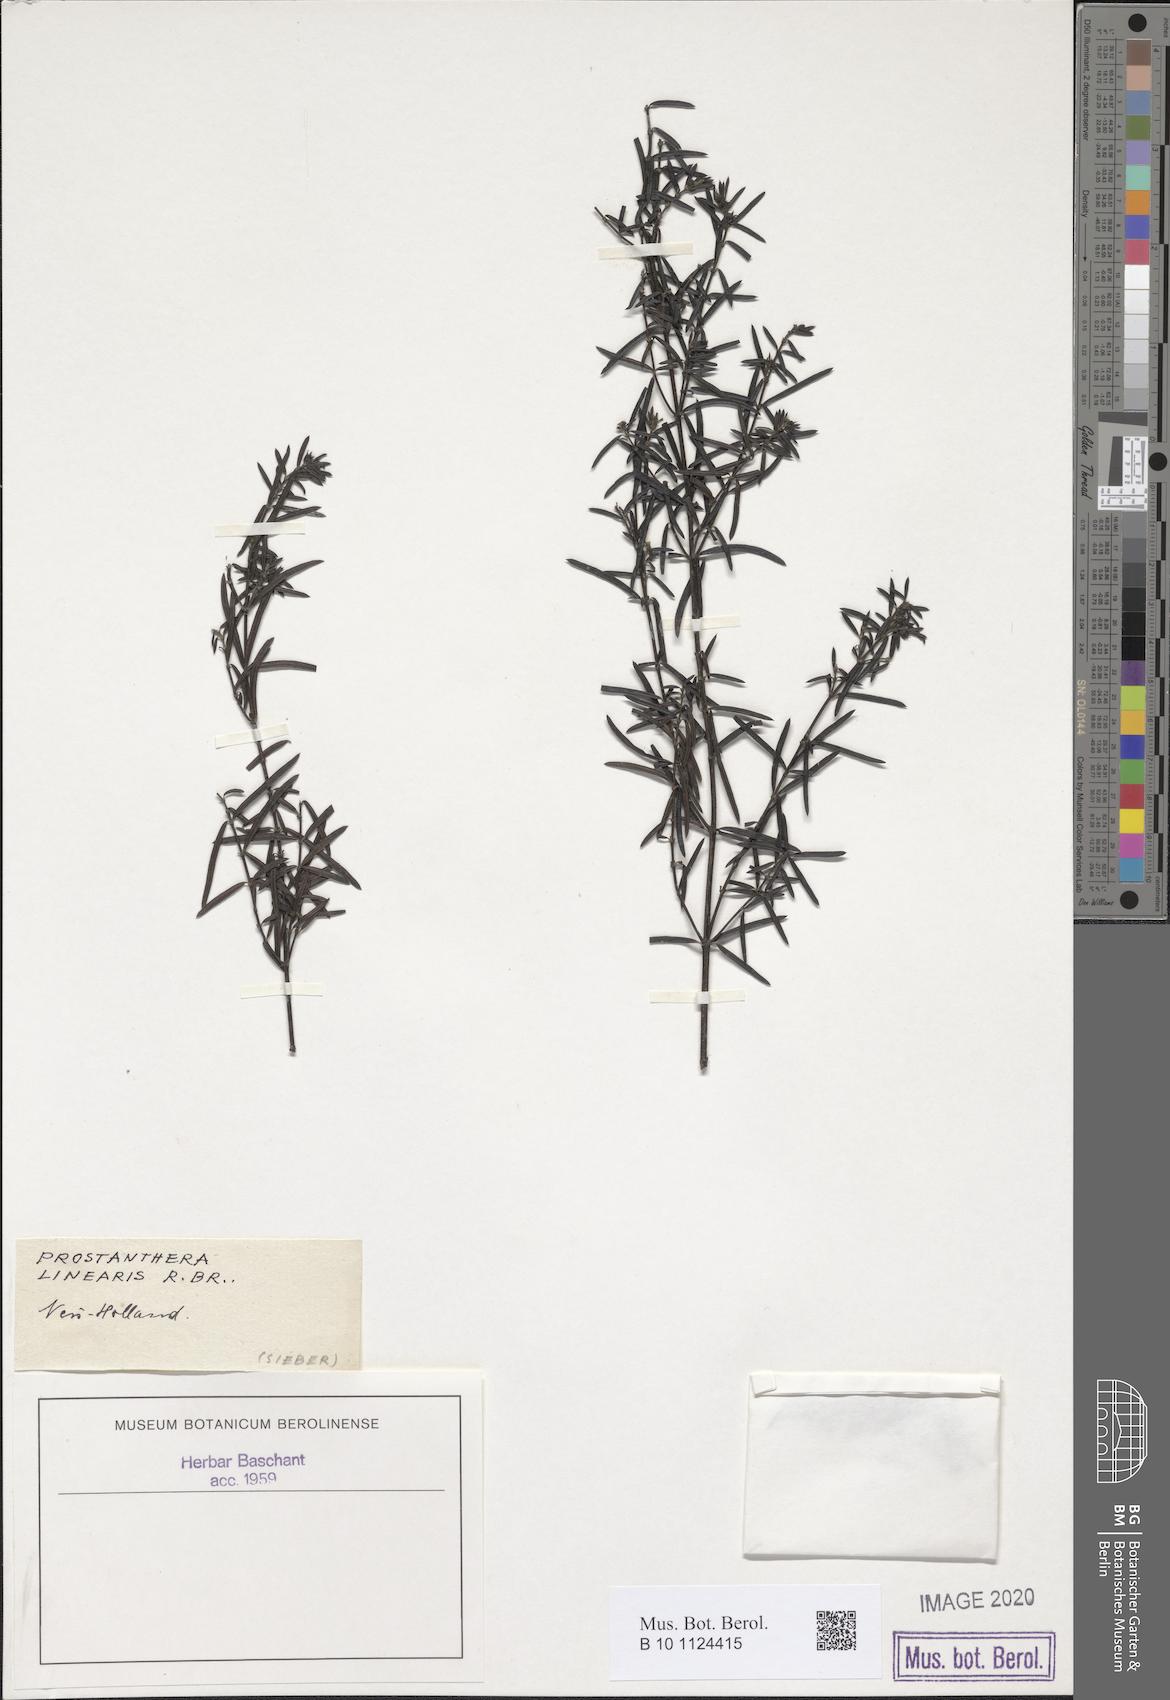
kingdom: Plantae
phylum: Tracheophyta
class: Magnoliopsida
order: Lamiales
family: Lamiaceae
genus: Westringia
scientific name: Westringia longifolia
